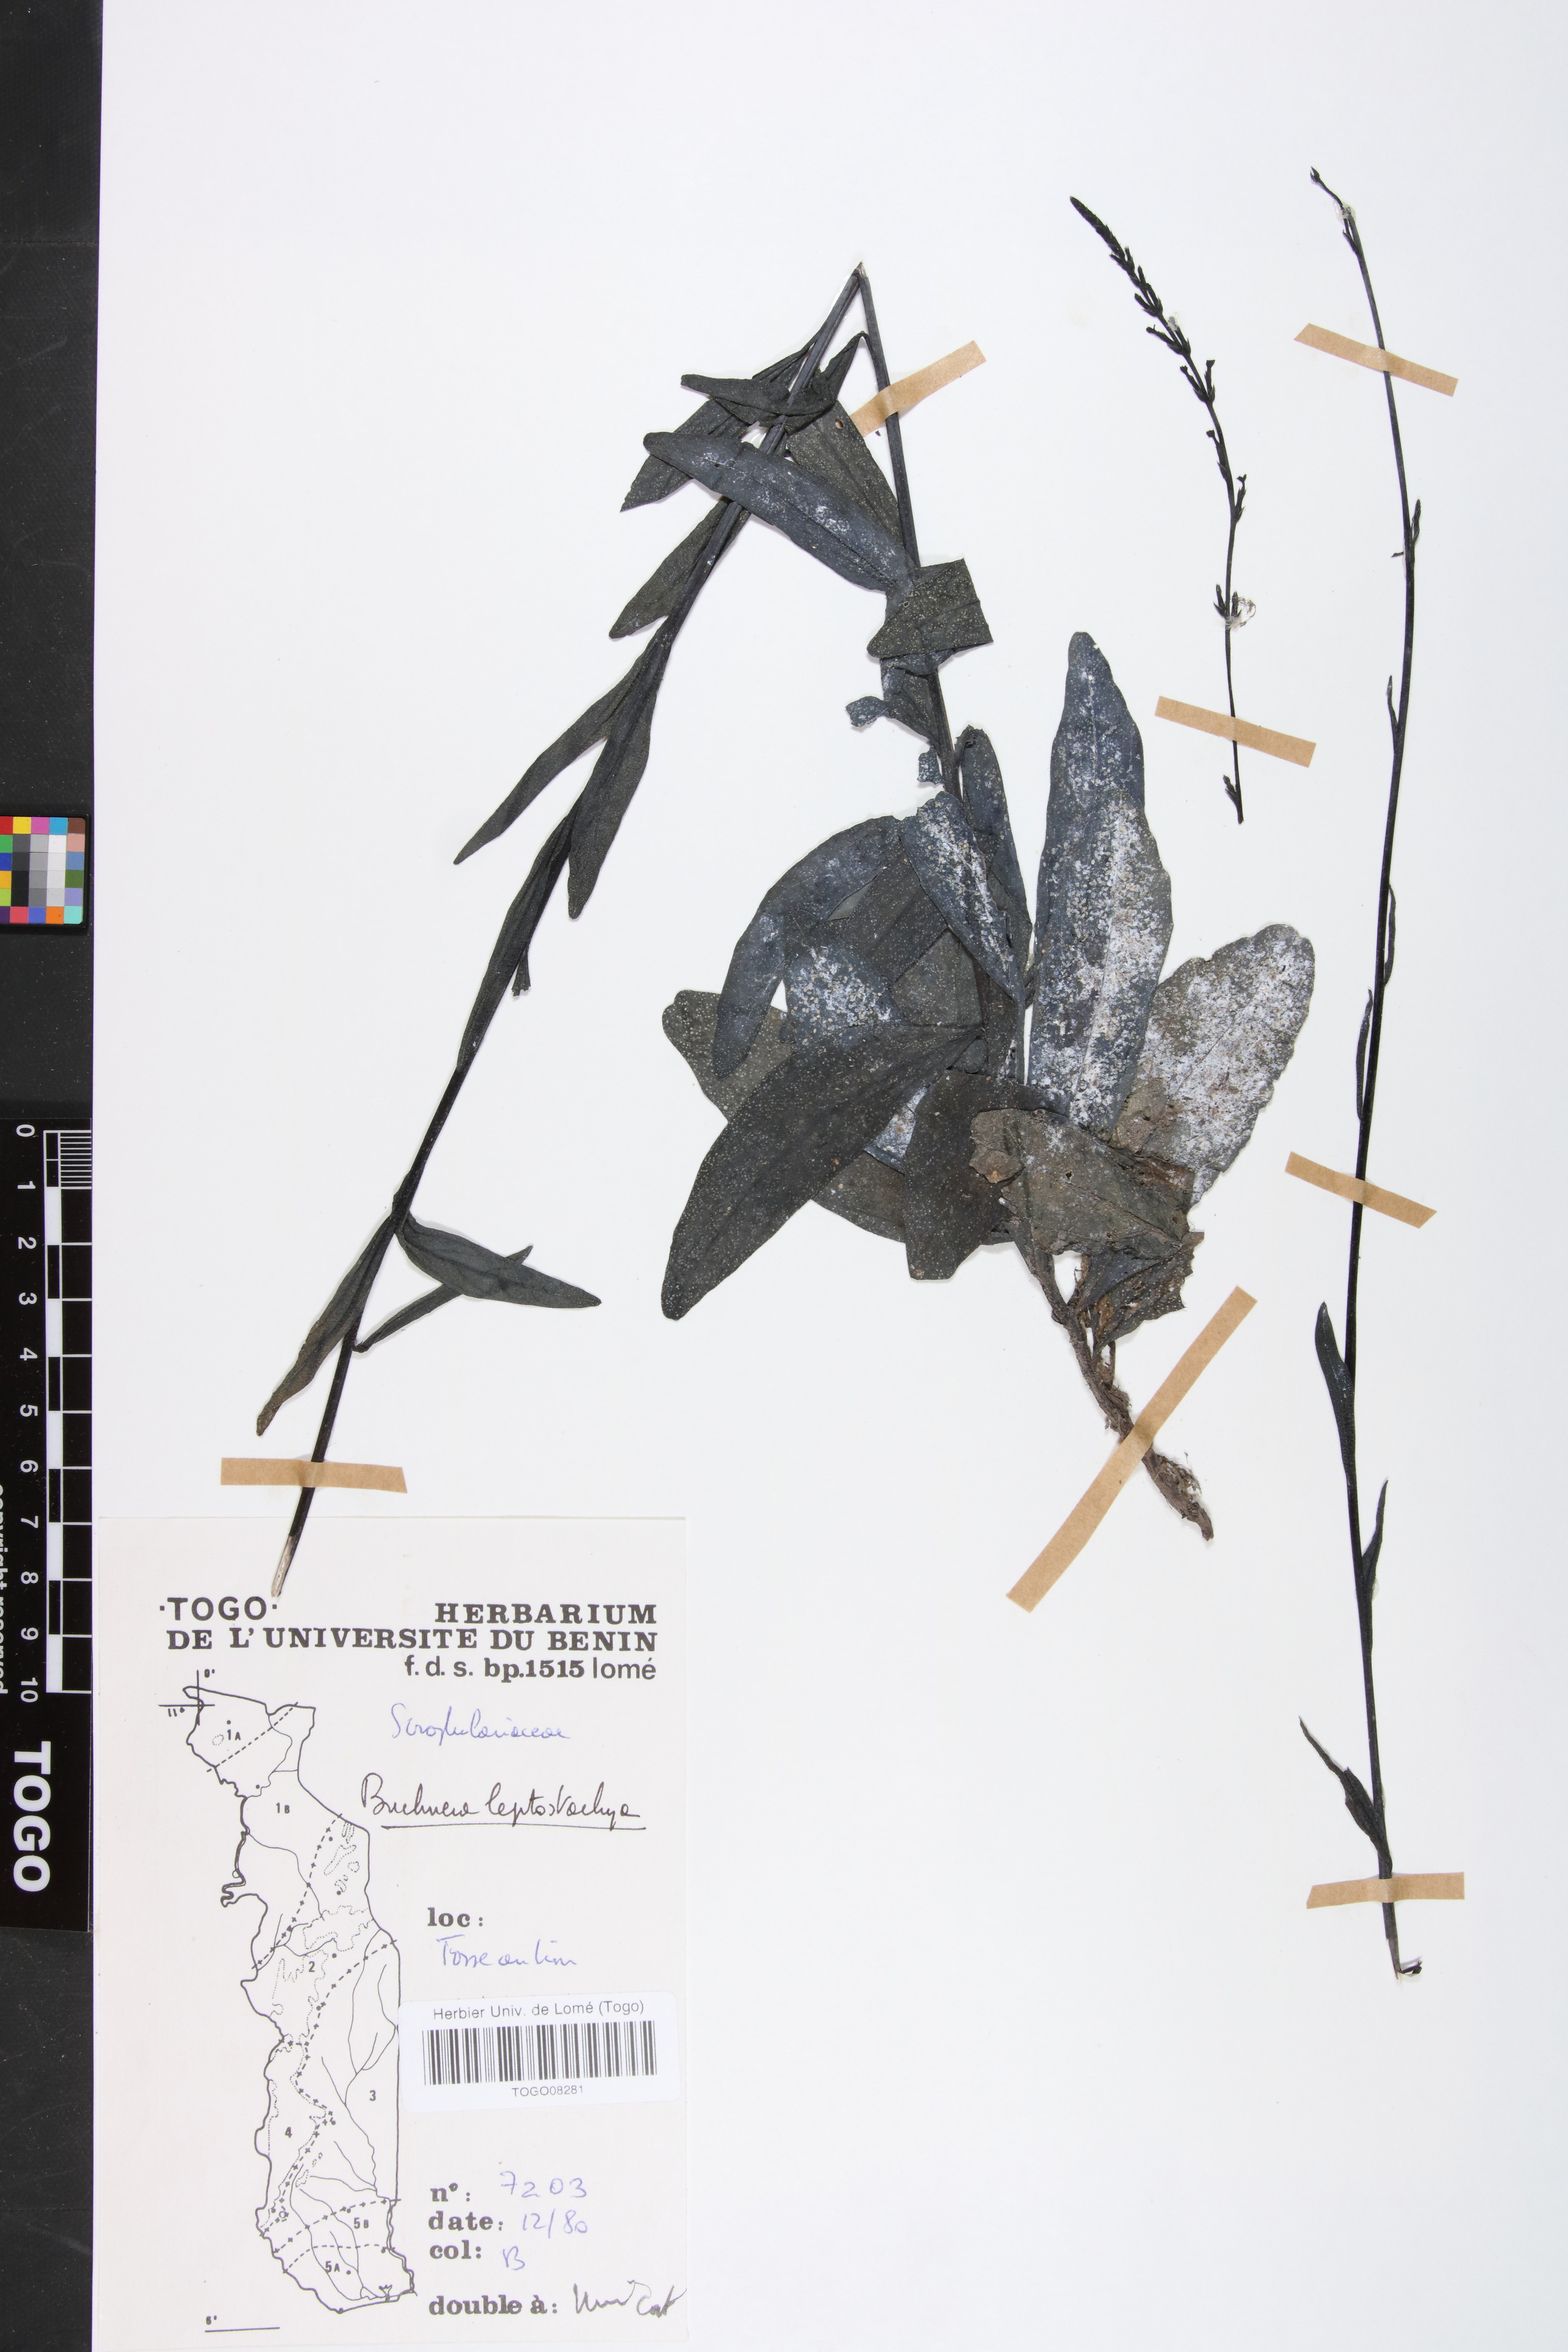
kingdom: Plantae
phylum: Tracheophyta
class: Magnoliopsida
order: Lamiales
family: Orobanchaceae
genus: Buchnera
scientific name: Buchnera leptostachya
